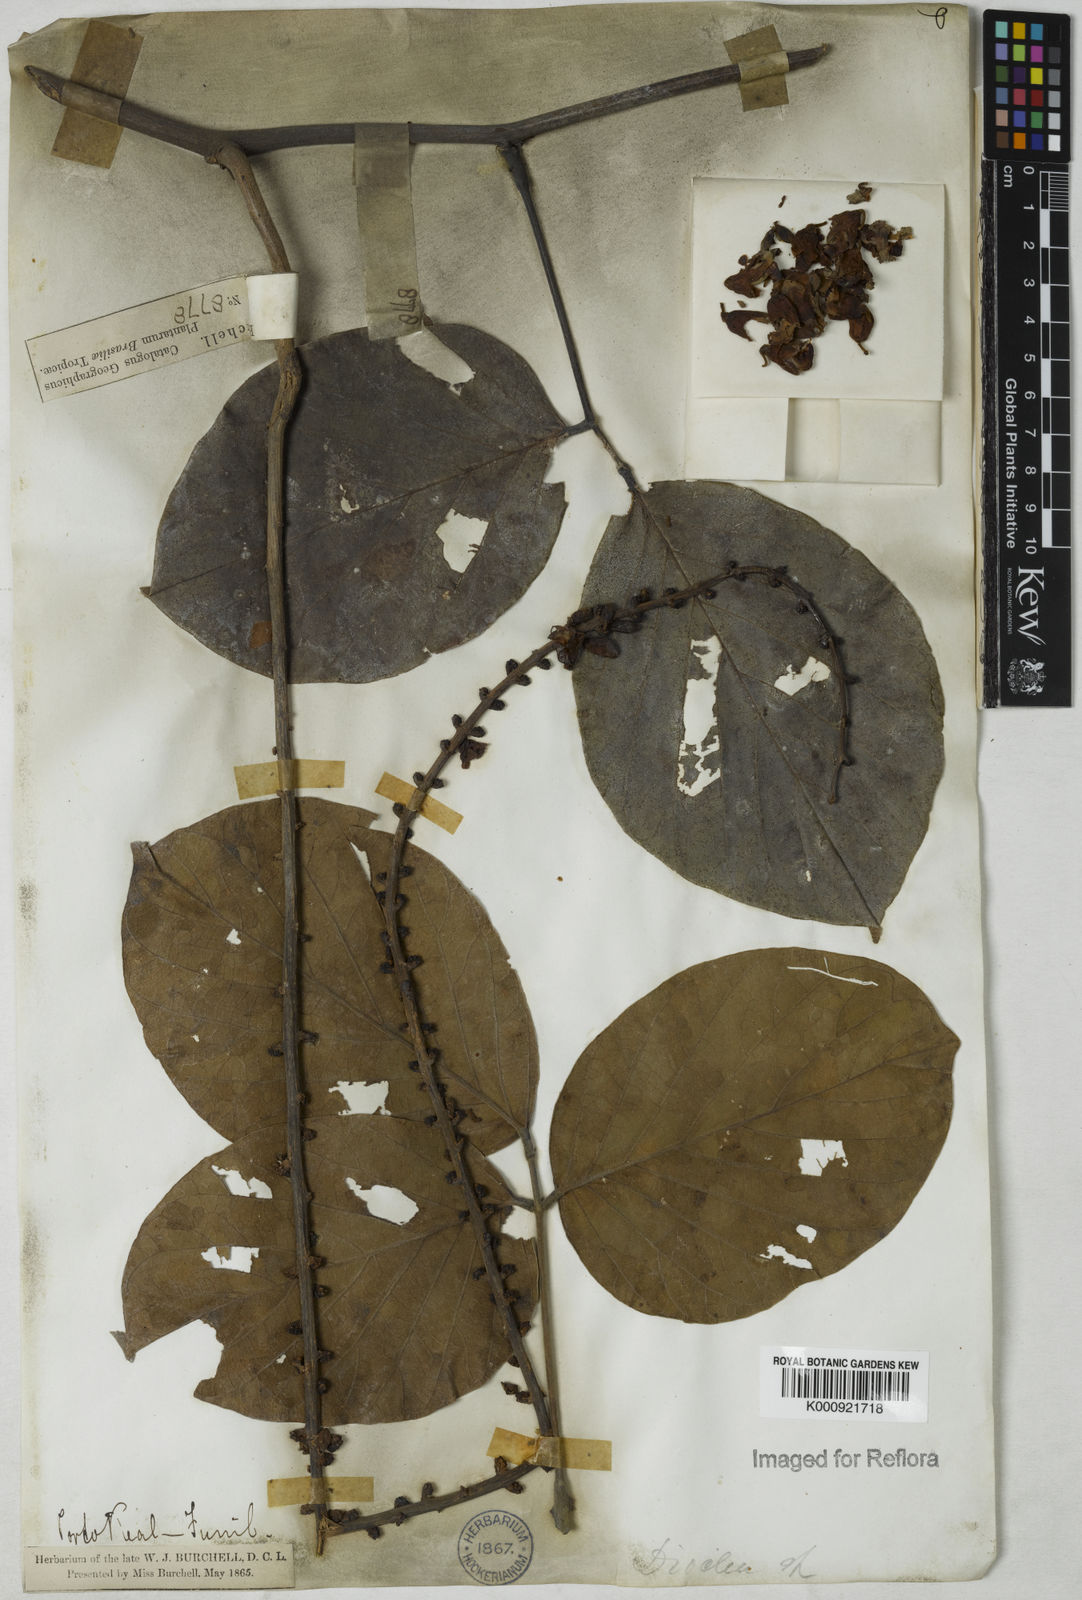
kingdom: Plantae
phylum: Tracheophyta
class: Magnoliopsida
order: Fabales
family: Fabaceae
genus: Macropsychanthus
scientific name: Macropsychanthus violaceus
